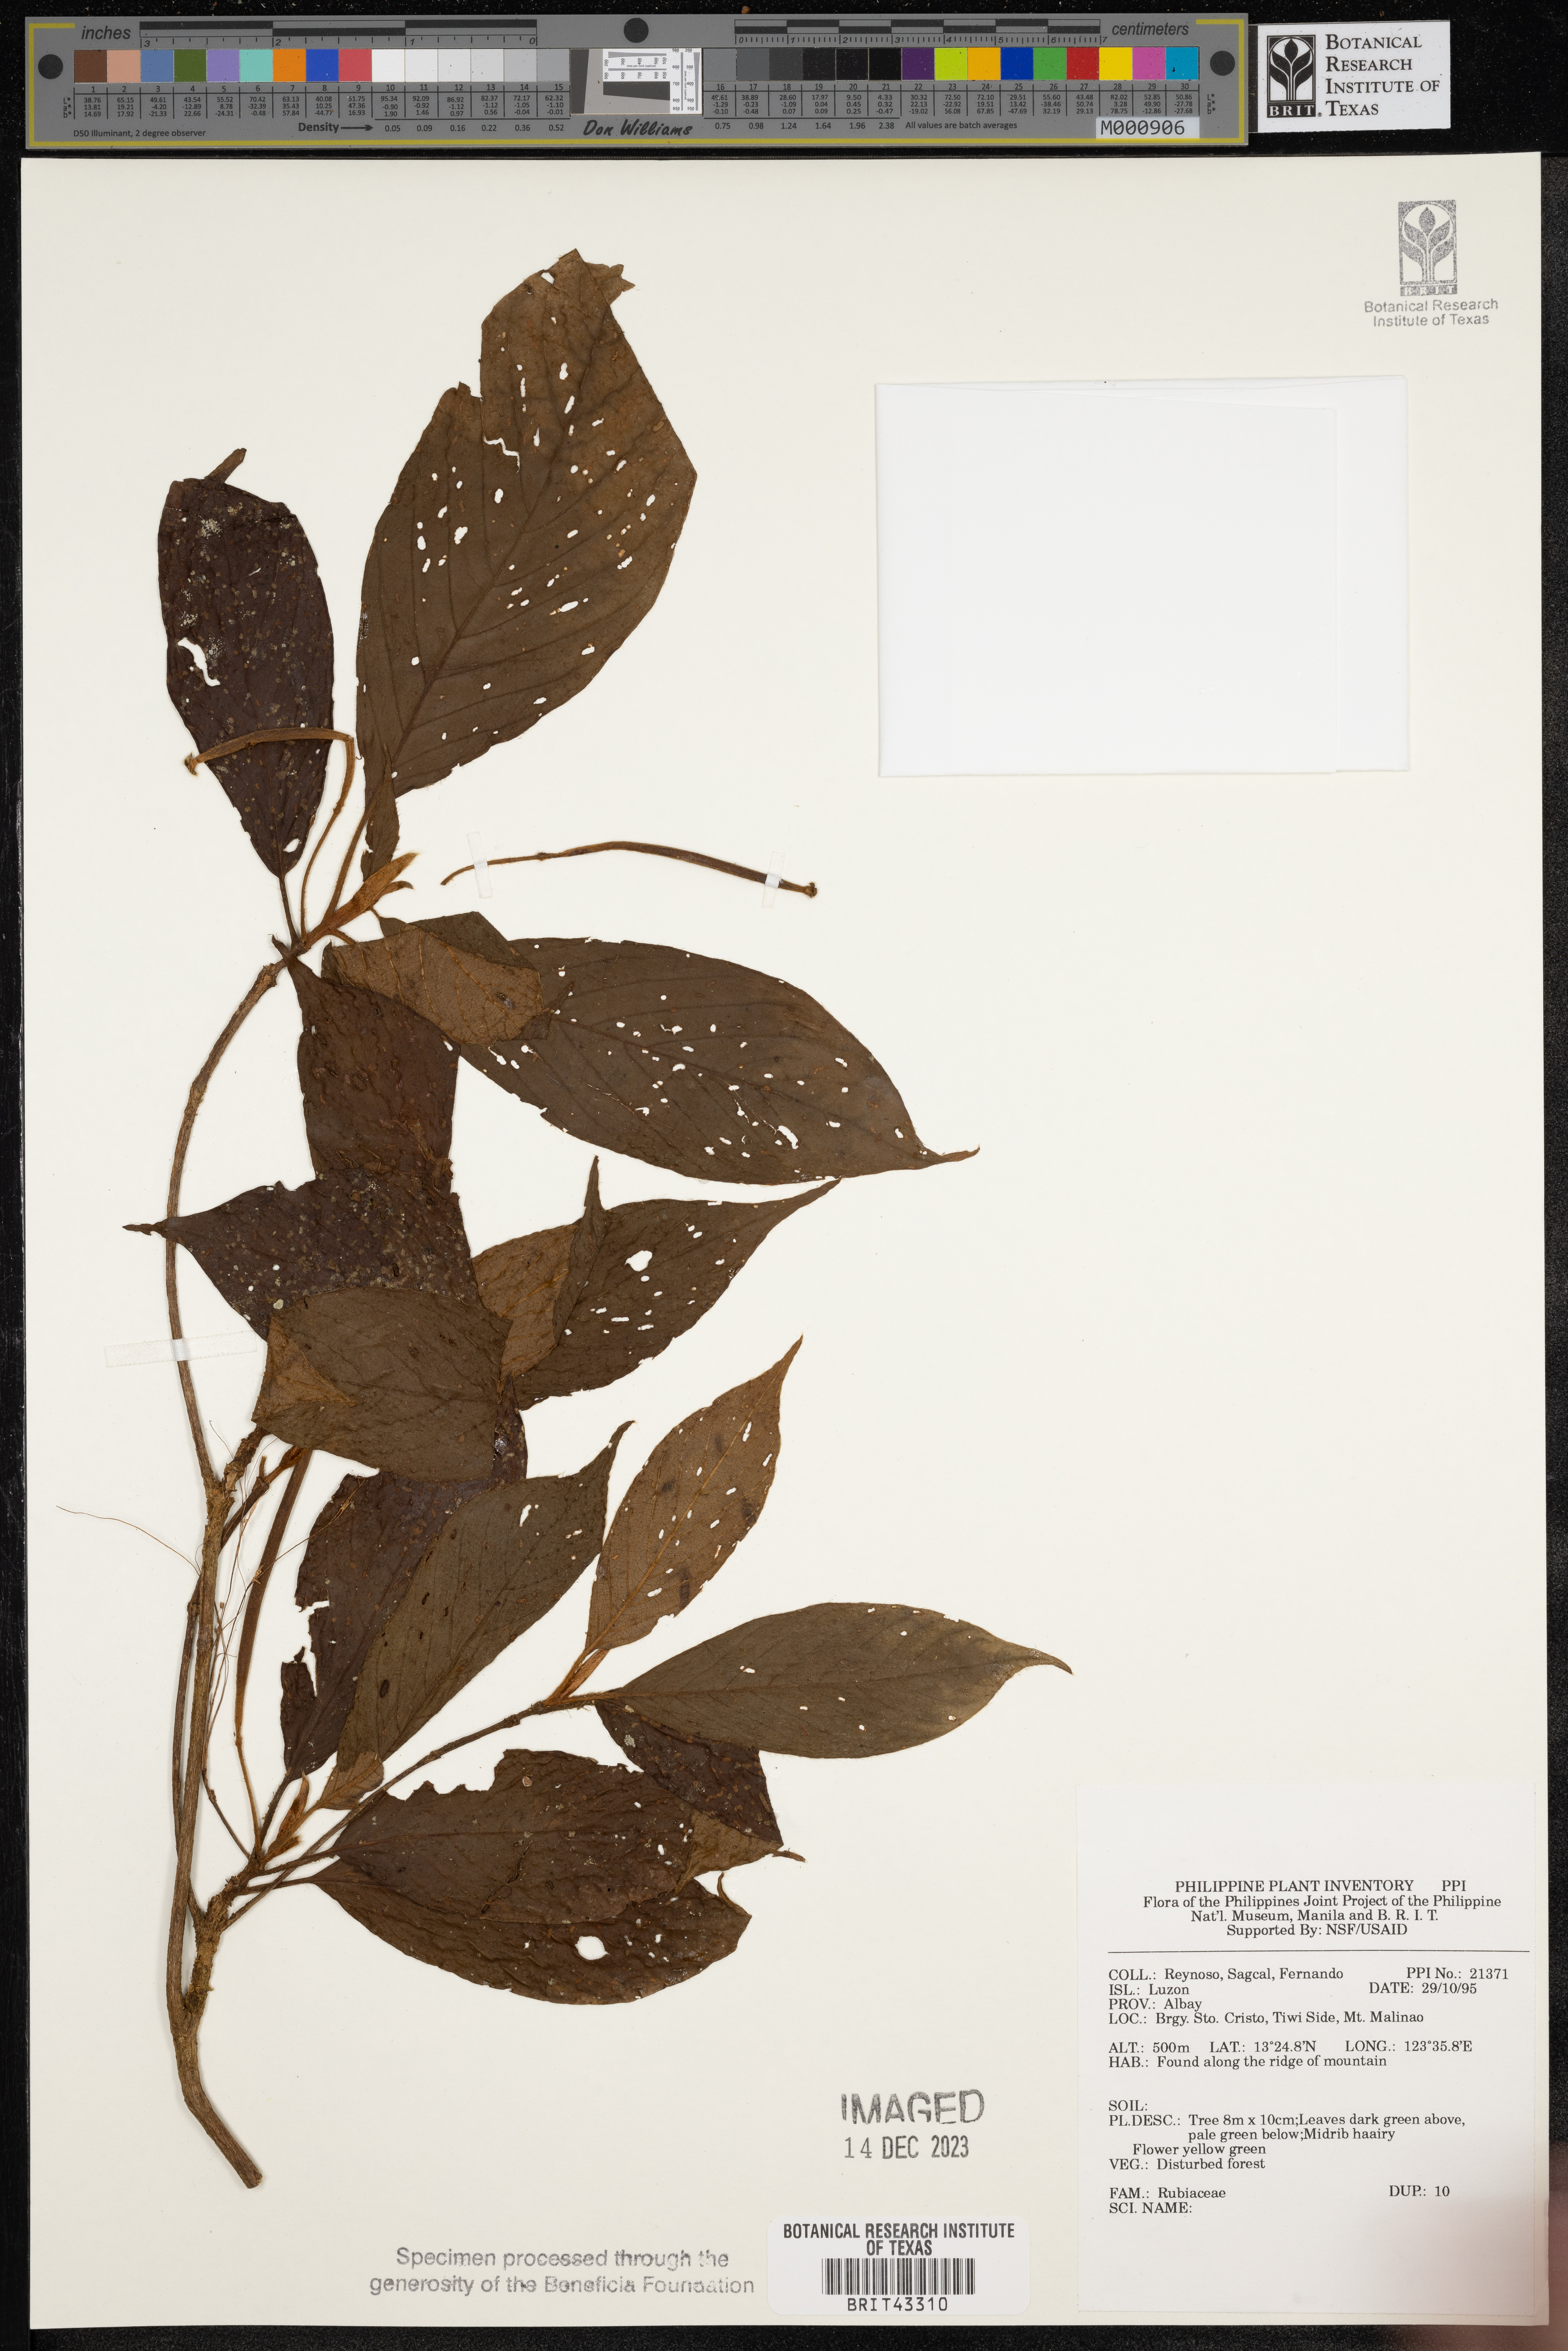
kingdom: Plantae
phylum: Tracheophyta
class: Magnoliopsida
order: Gentianales
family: Rubiaceae
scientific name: Rubiaceae
